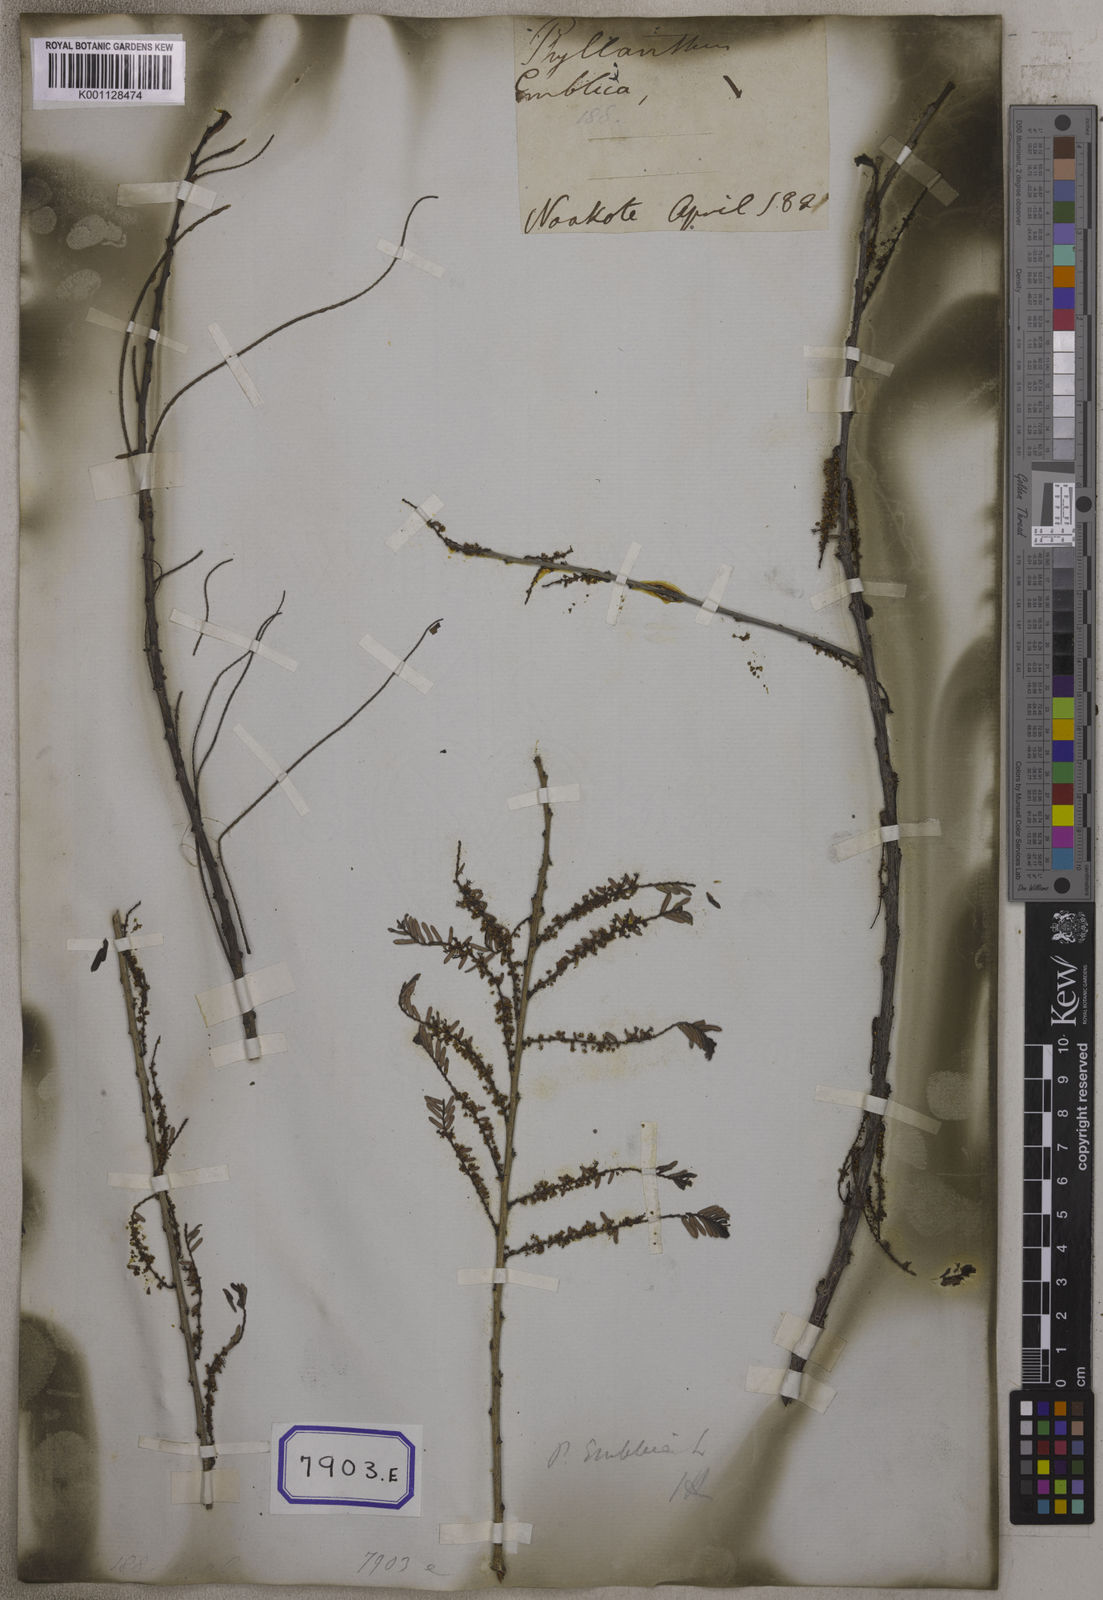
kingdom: Plantae
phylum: Tracheophyta
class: Magnoliopsida
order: Malpighiales
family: Euphorbiaceae
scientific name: Euphorbiaceae
